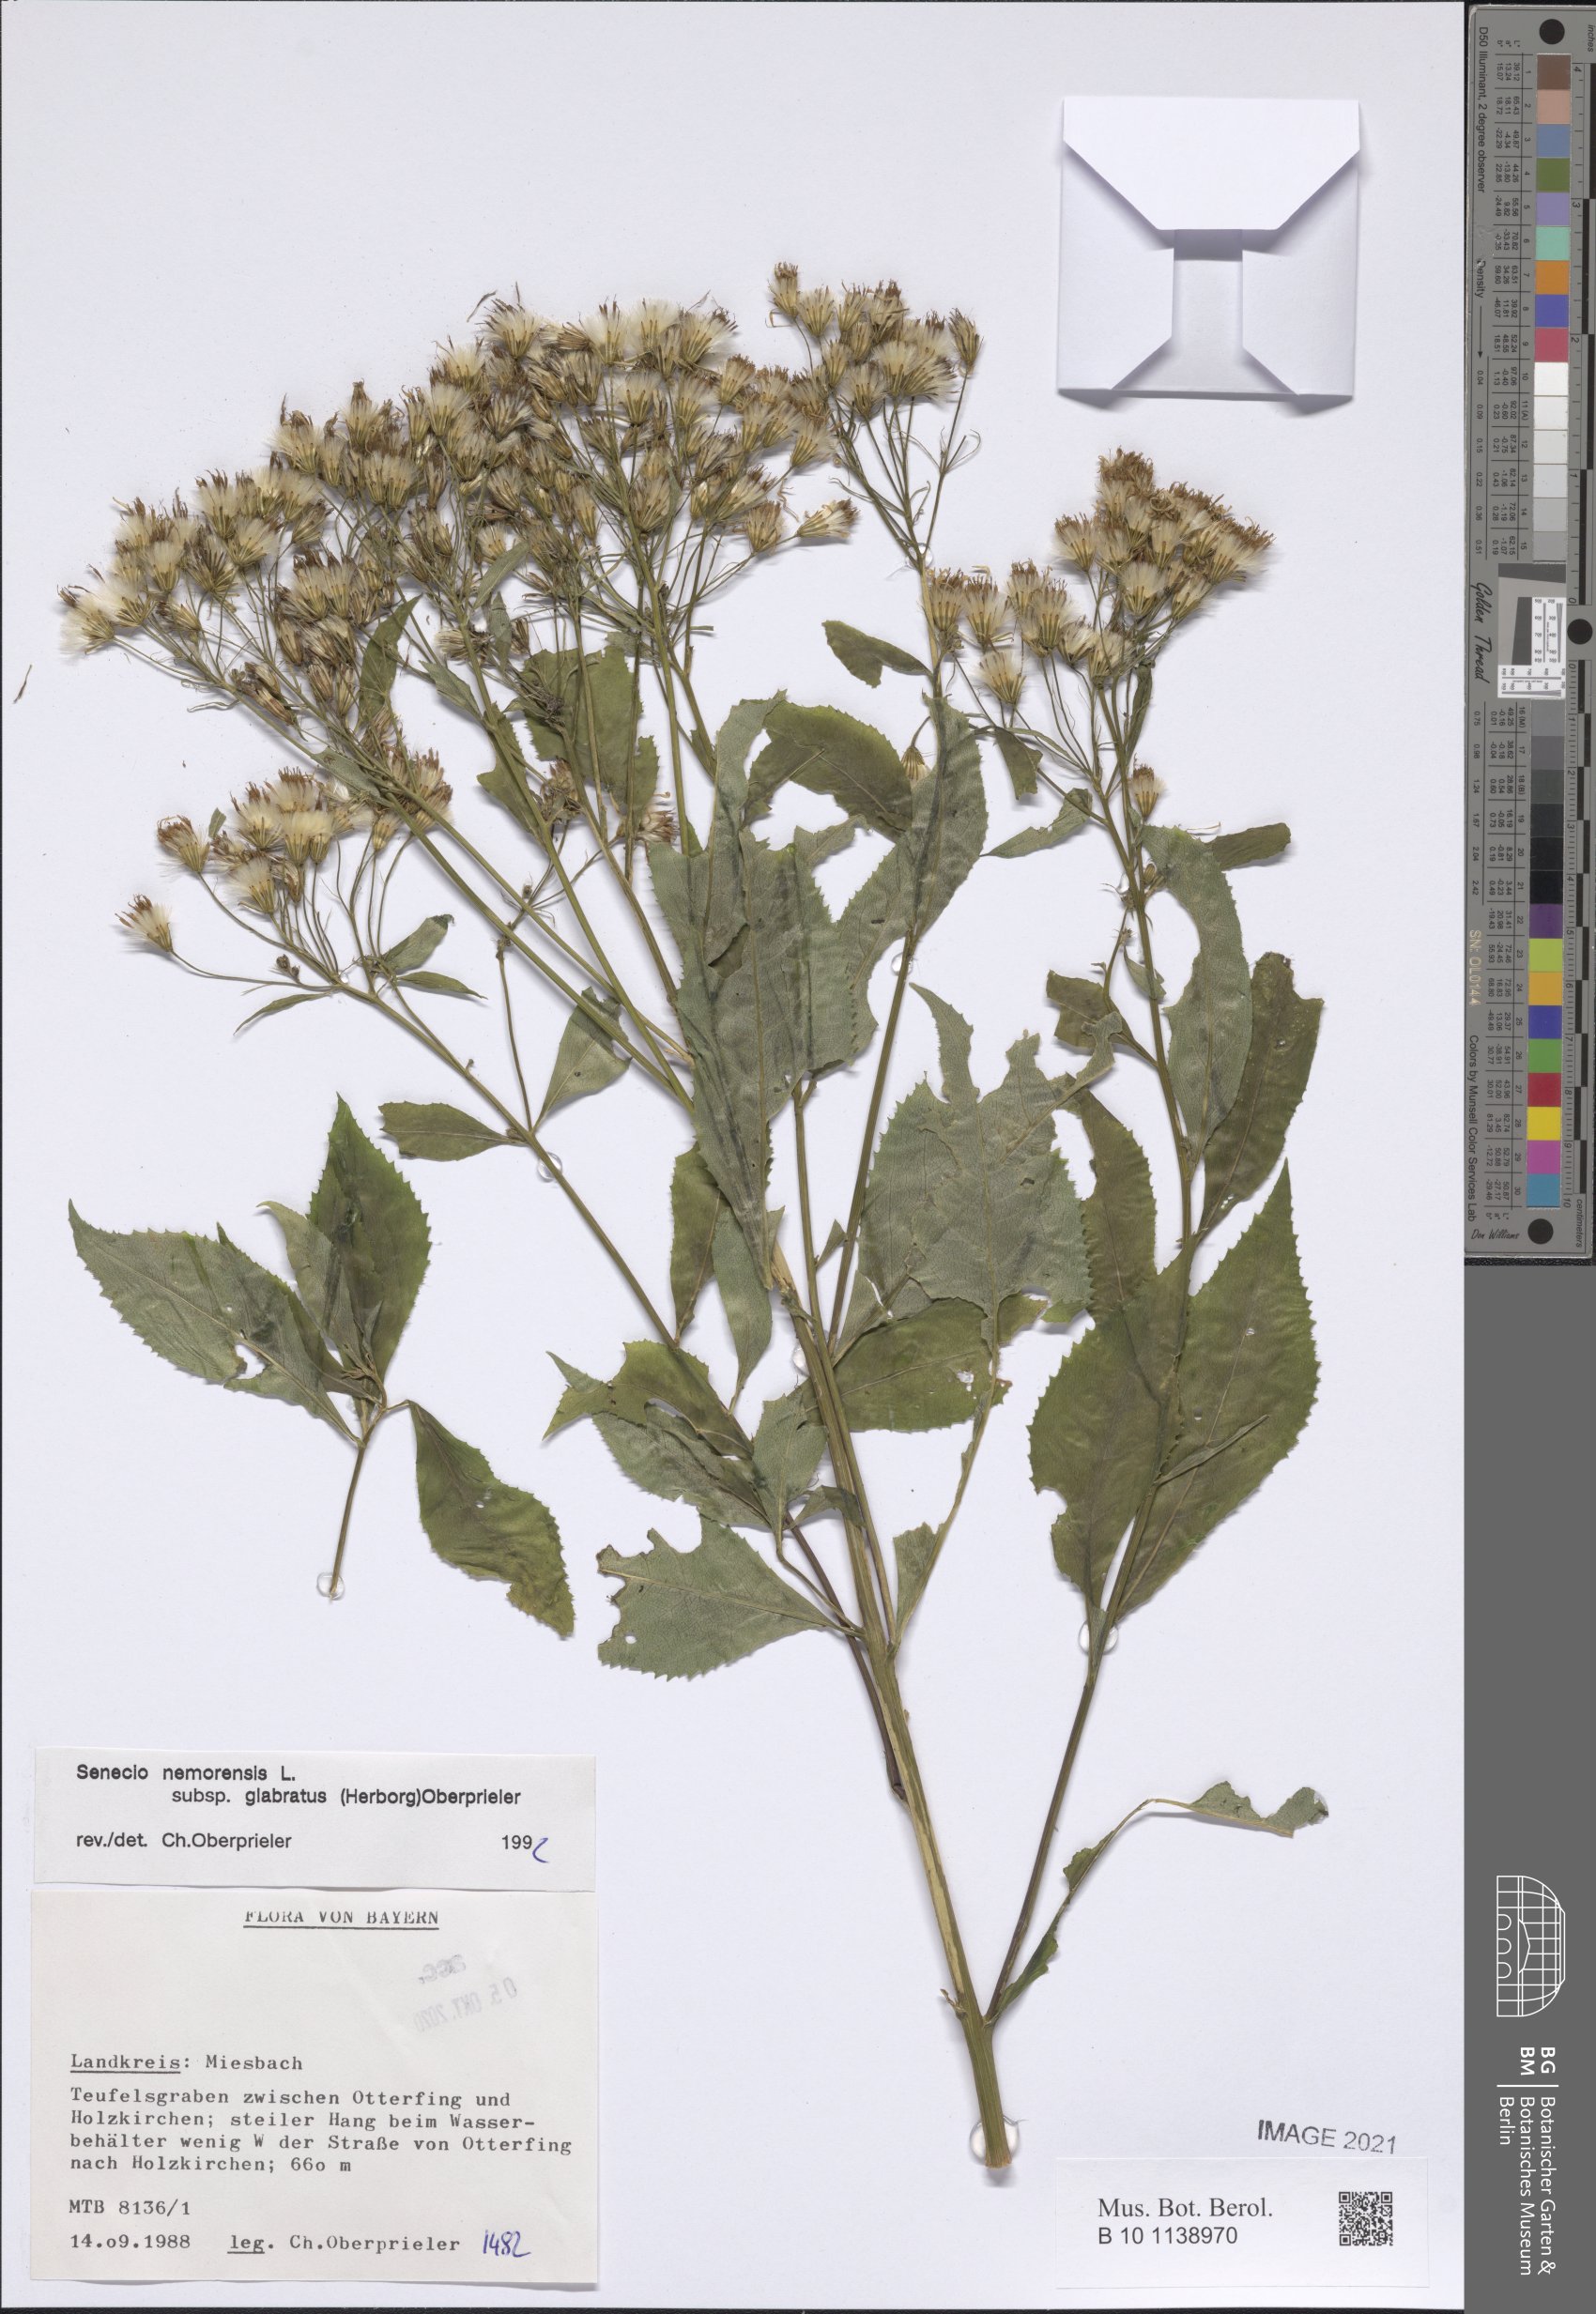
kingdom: Plantae
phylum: Tracheophyta
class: Magnoliopsida
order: Asterales
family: Asteraceae
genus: Senecio
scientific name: Senecio germanicus
